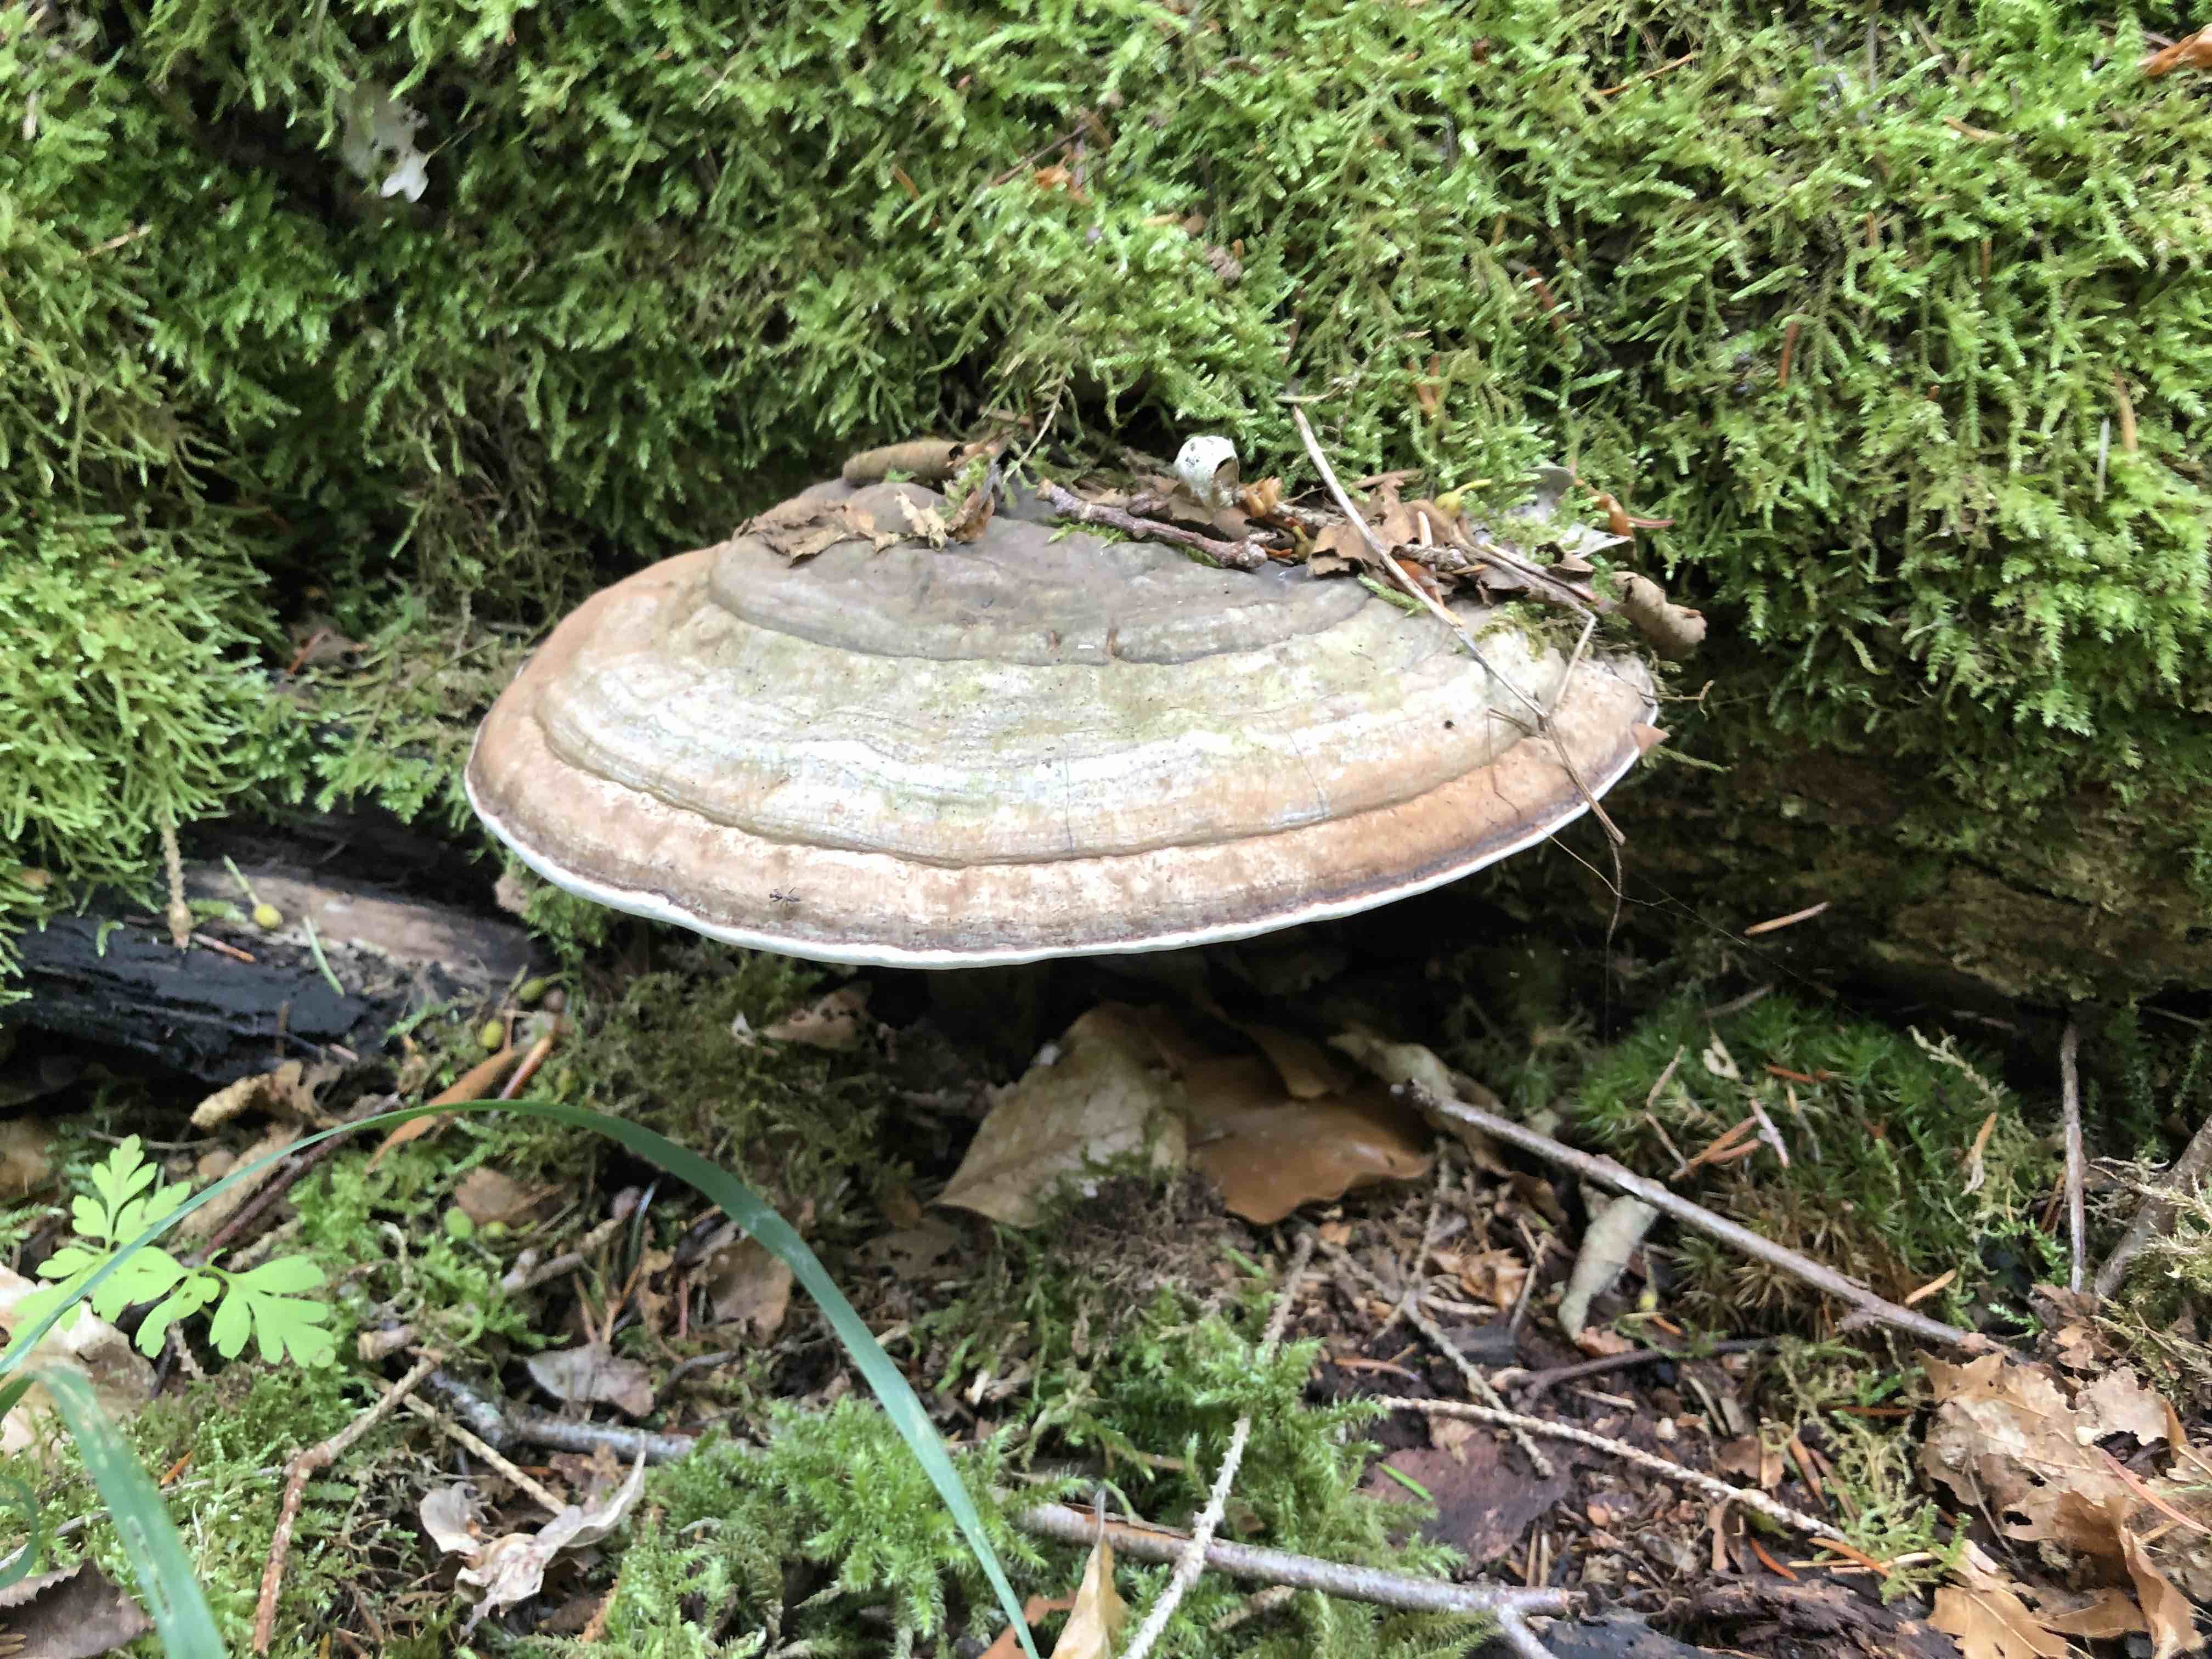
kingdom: Fungi
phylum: Basidiomycota
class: Agaricomycetes
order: Polyporales
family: Polyporaceae
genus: Ganoderma
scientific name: Ganoderma applanatum
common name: flad lakporesvamp
